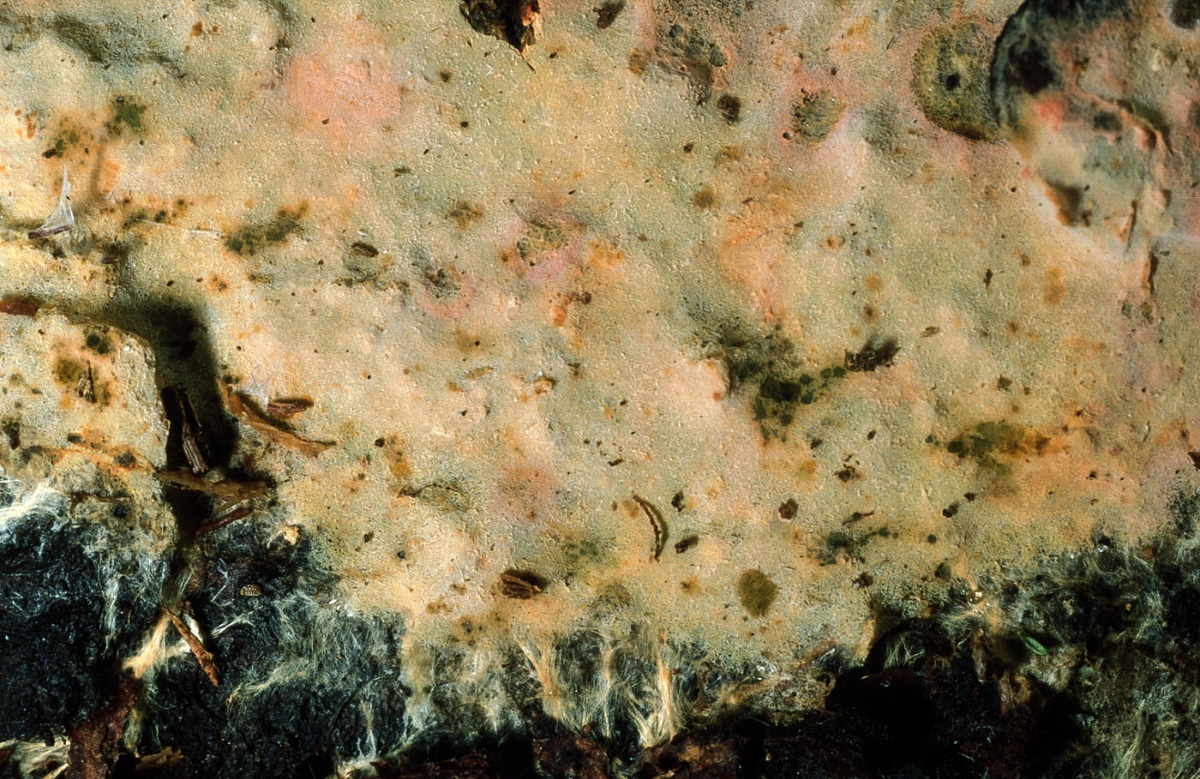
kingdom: Fungi
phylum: Basidiomycota
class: Agaricomycetes
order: Atheliales
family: Atheliaceae
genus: Tretomyces
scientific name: Tretomyces microsporus
